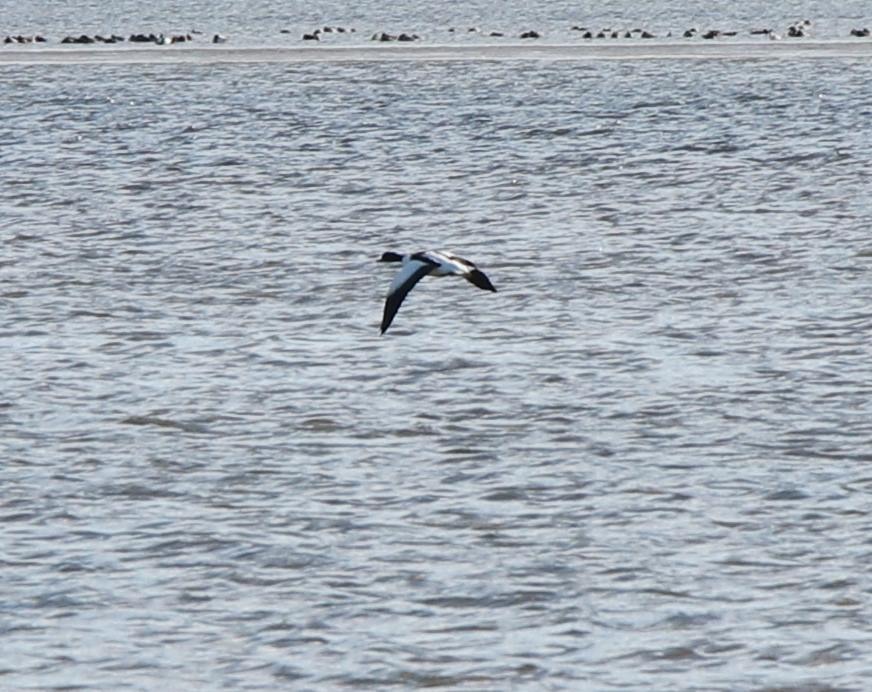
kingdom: Animalia
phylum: Chordata
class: Aves
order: Anseriformes
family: Anatidae
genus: Tadorna
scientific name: Tadorna tadorna
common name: Gravand
